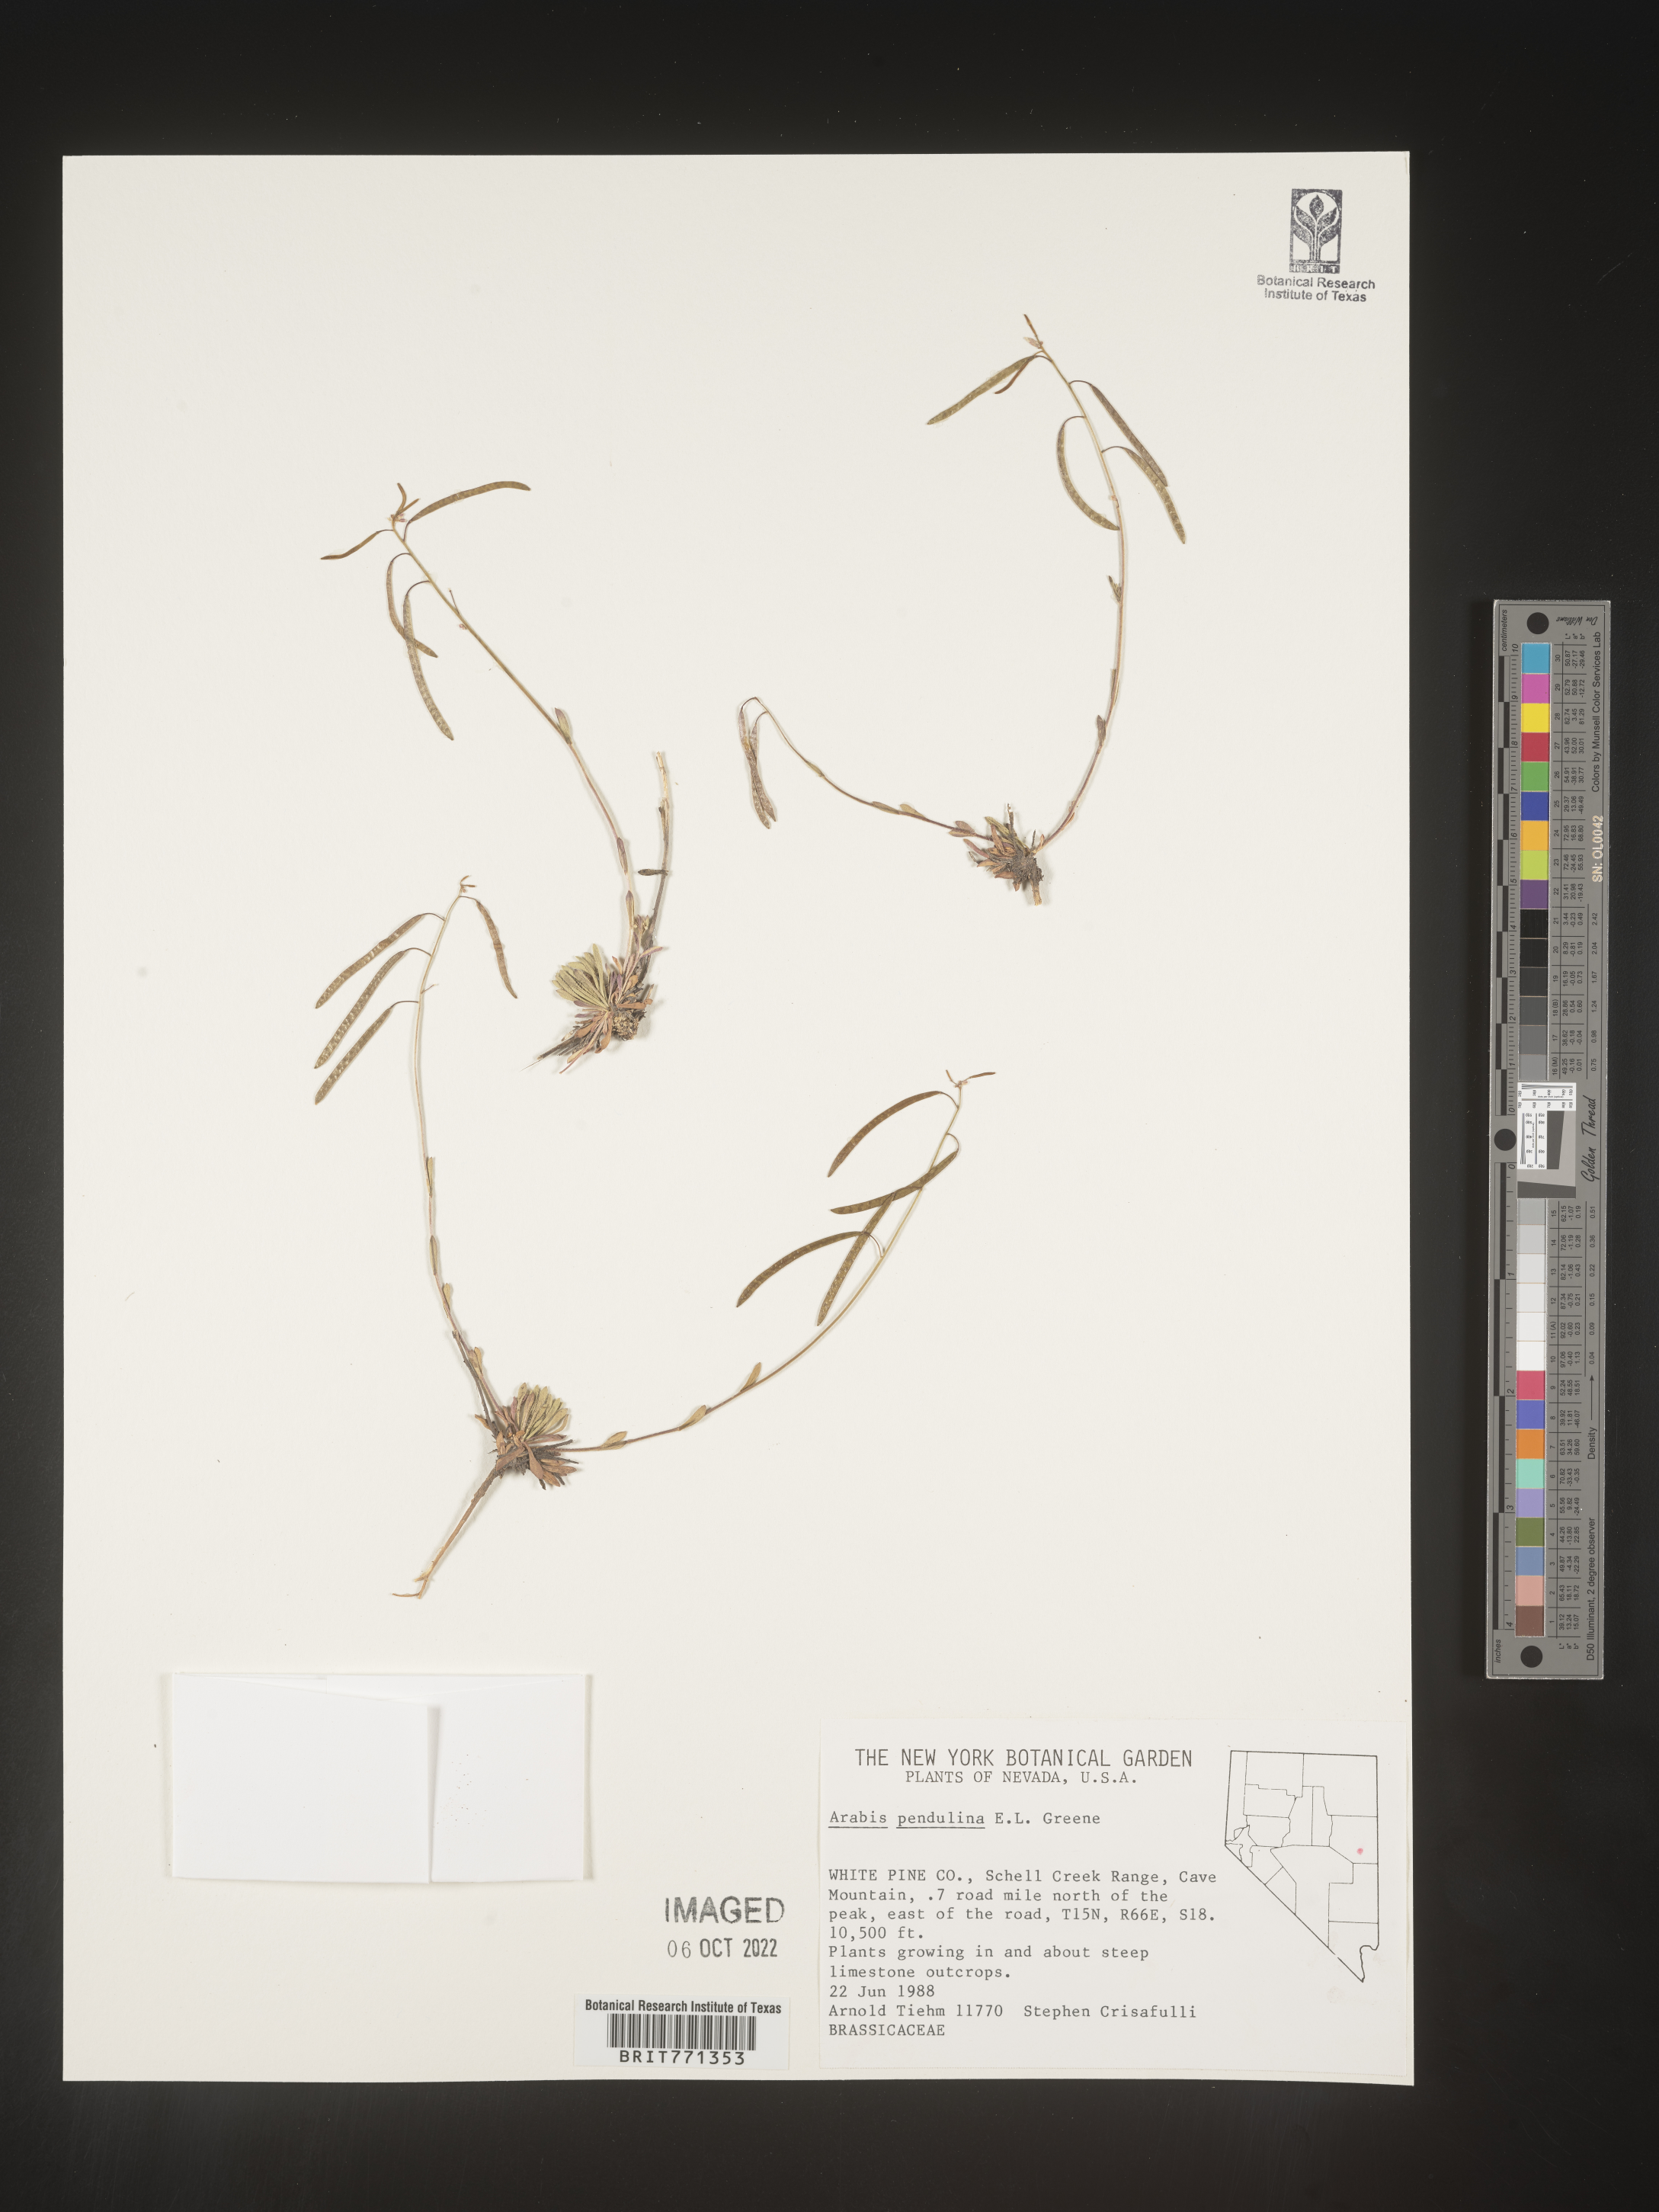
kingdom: Plantae
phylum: Tracheophyta
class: Magnoliopsida
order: Brassicales
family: Brassicaceae
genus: Arabis
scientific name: Arabis
